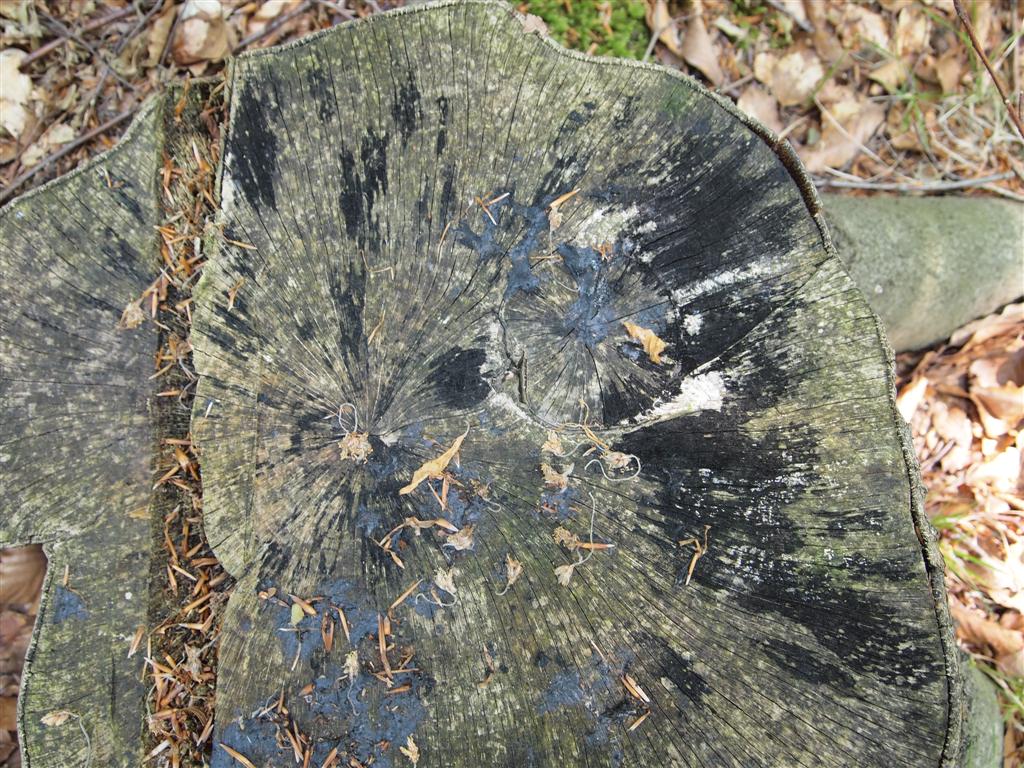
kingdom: Fungi
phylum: Ascomycota
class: Leotiomycetes
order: Helotiales
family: Helotiaceae
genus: Bispora
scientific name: Bispora pallescens
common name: måtte-snitskive
